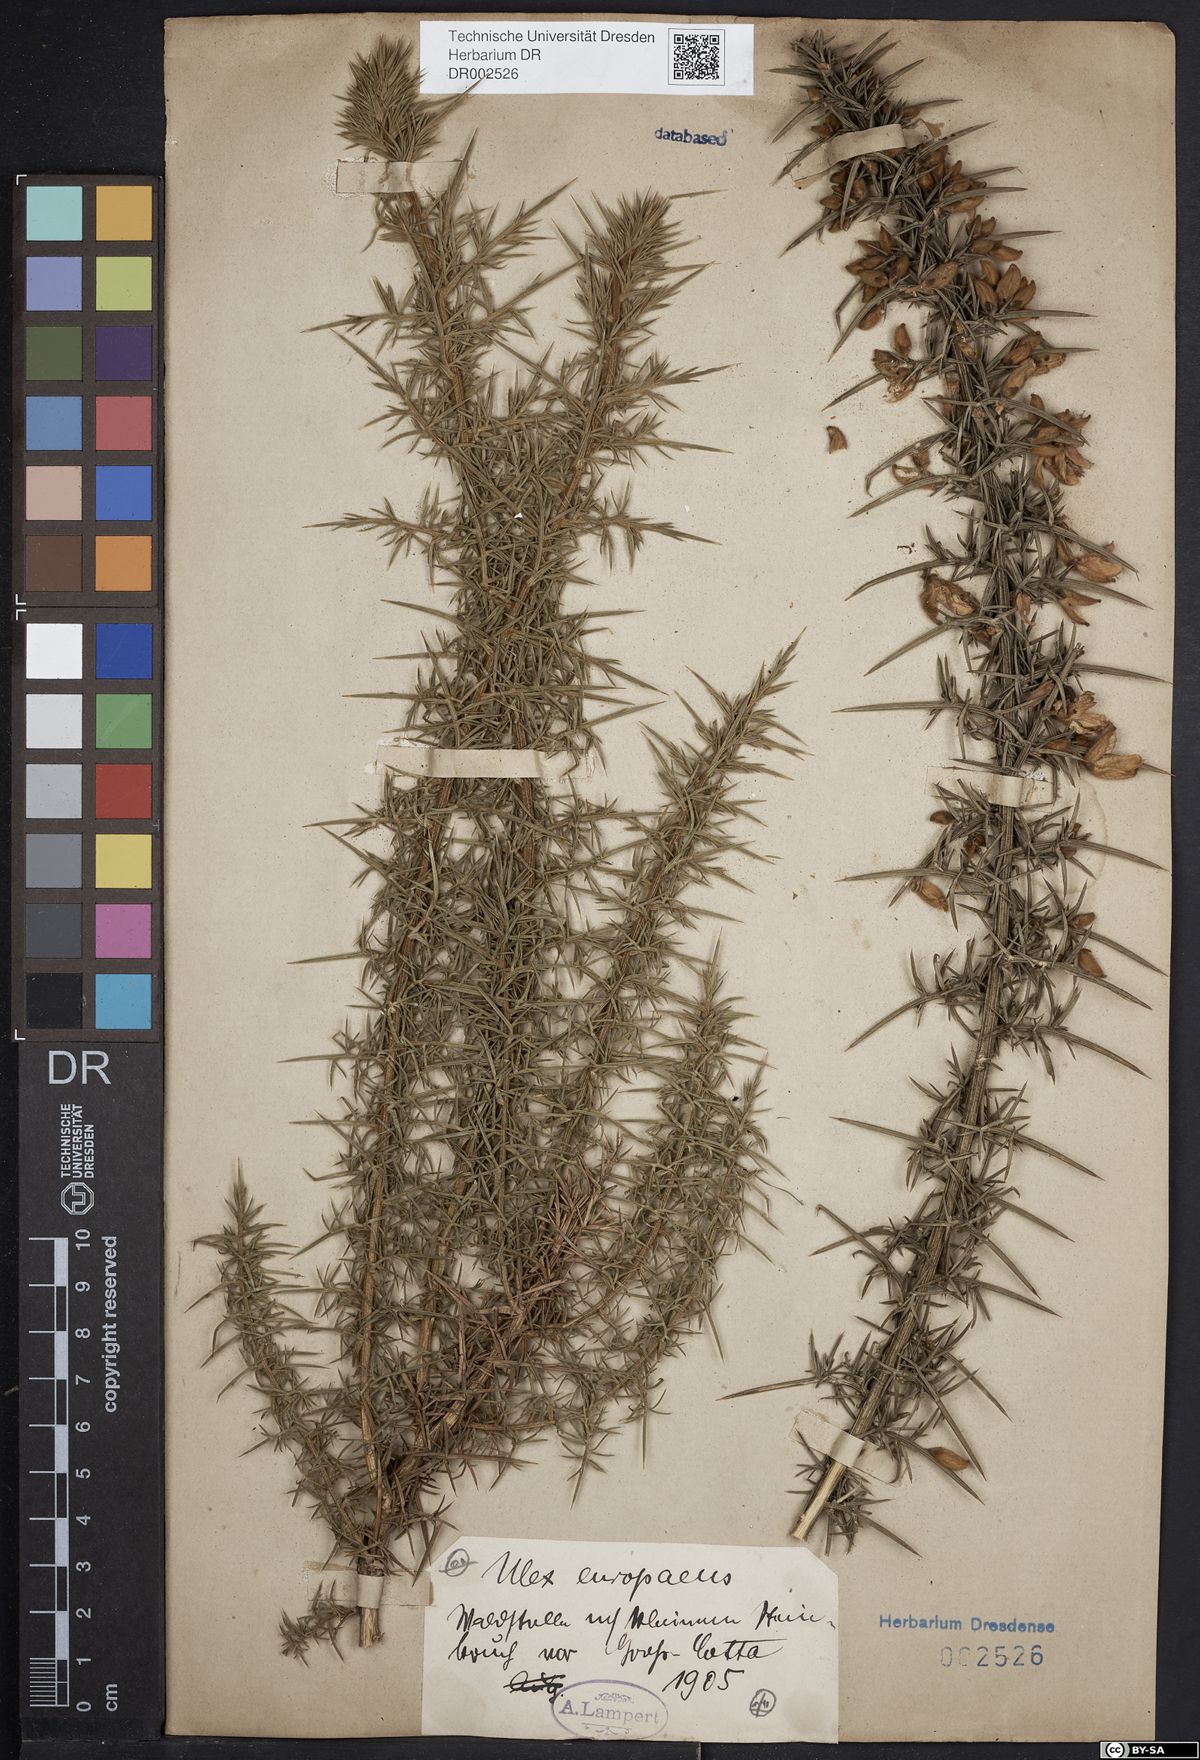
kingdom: Plantae
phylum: Tracheophyta
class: Magnoliopsida
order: Fabales
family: Fabaceae
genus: Ulex
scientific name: Ulex europaeus
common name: Common gorse
